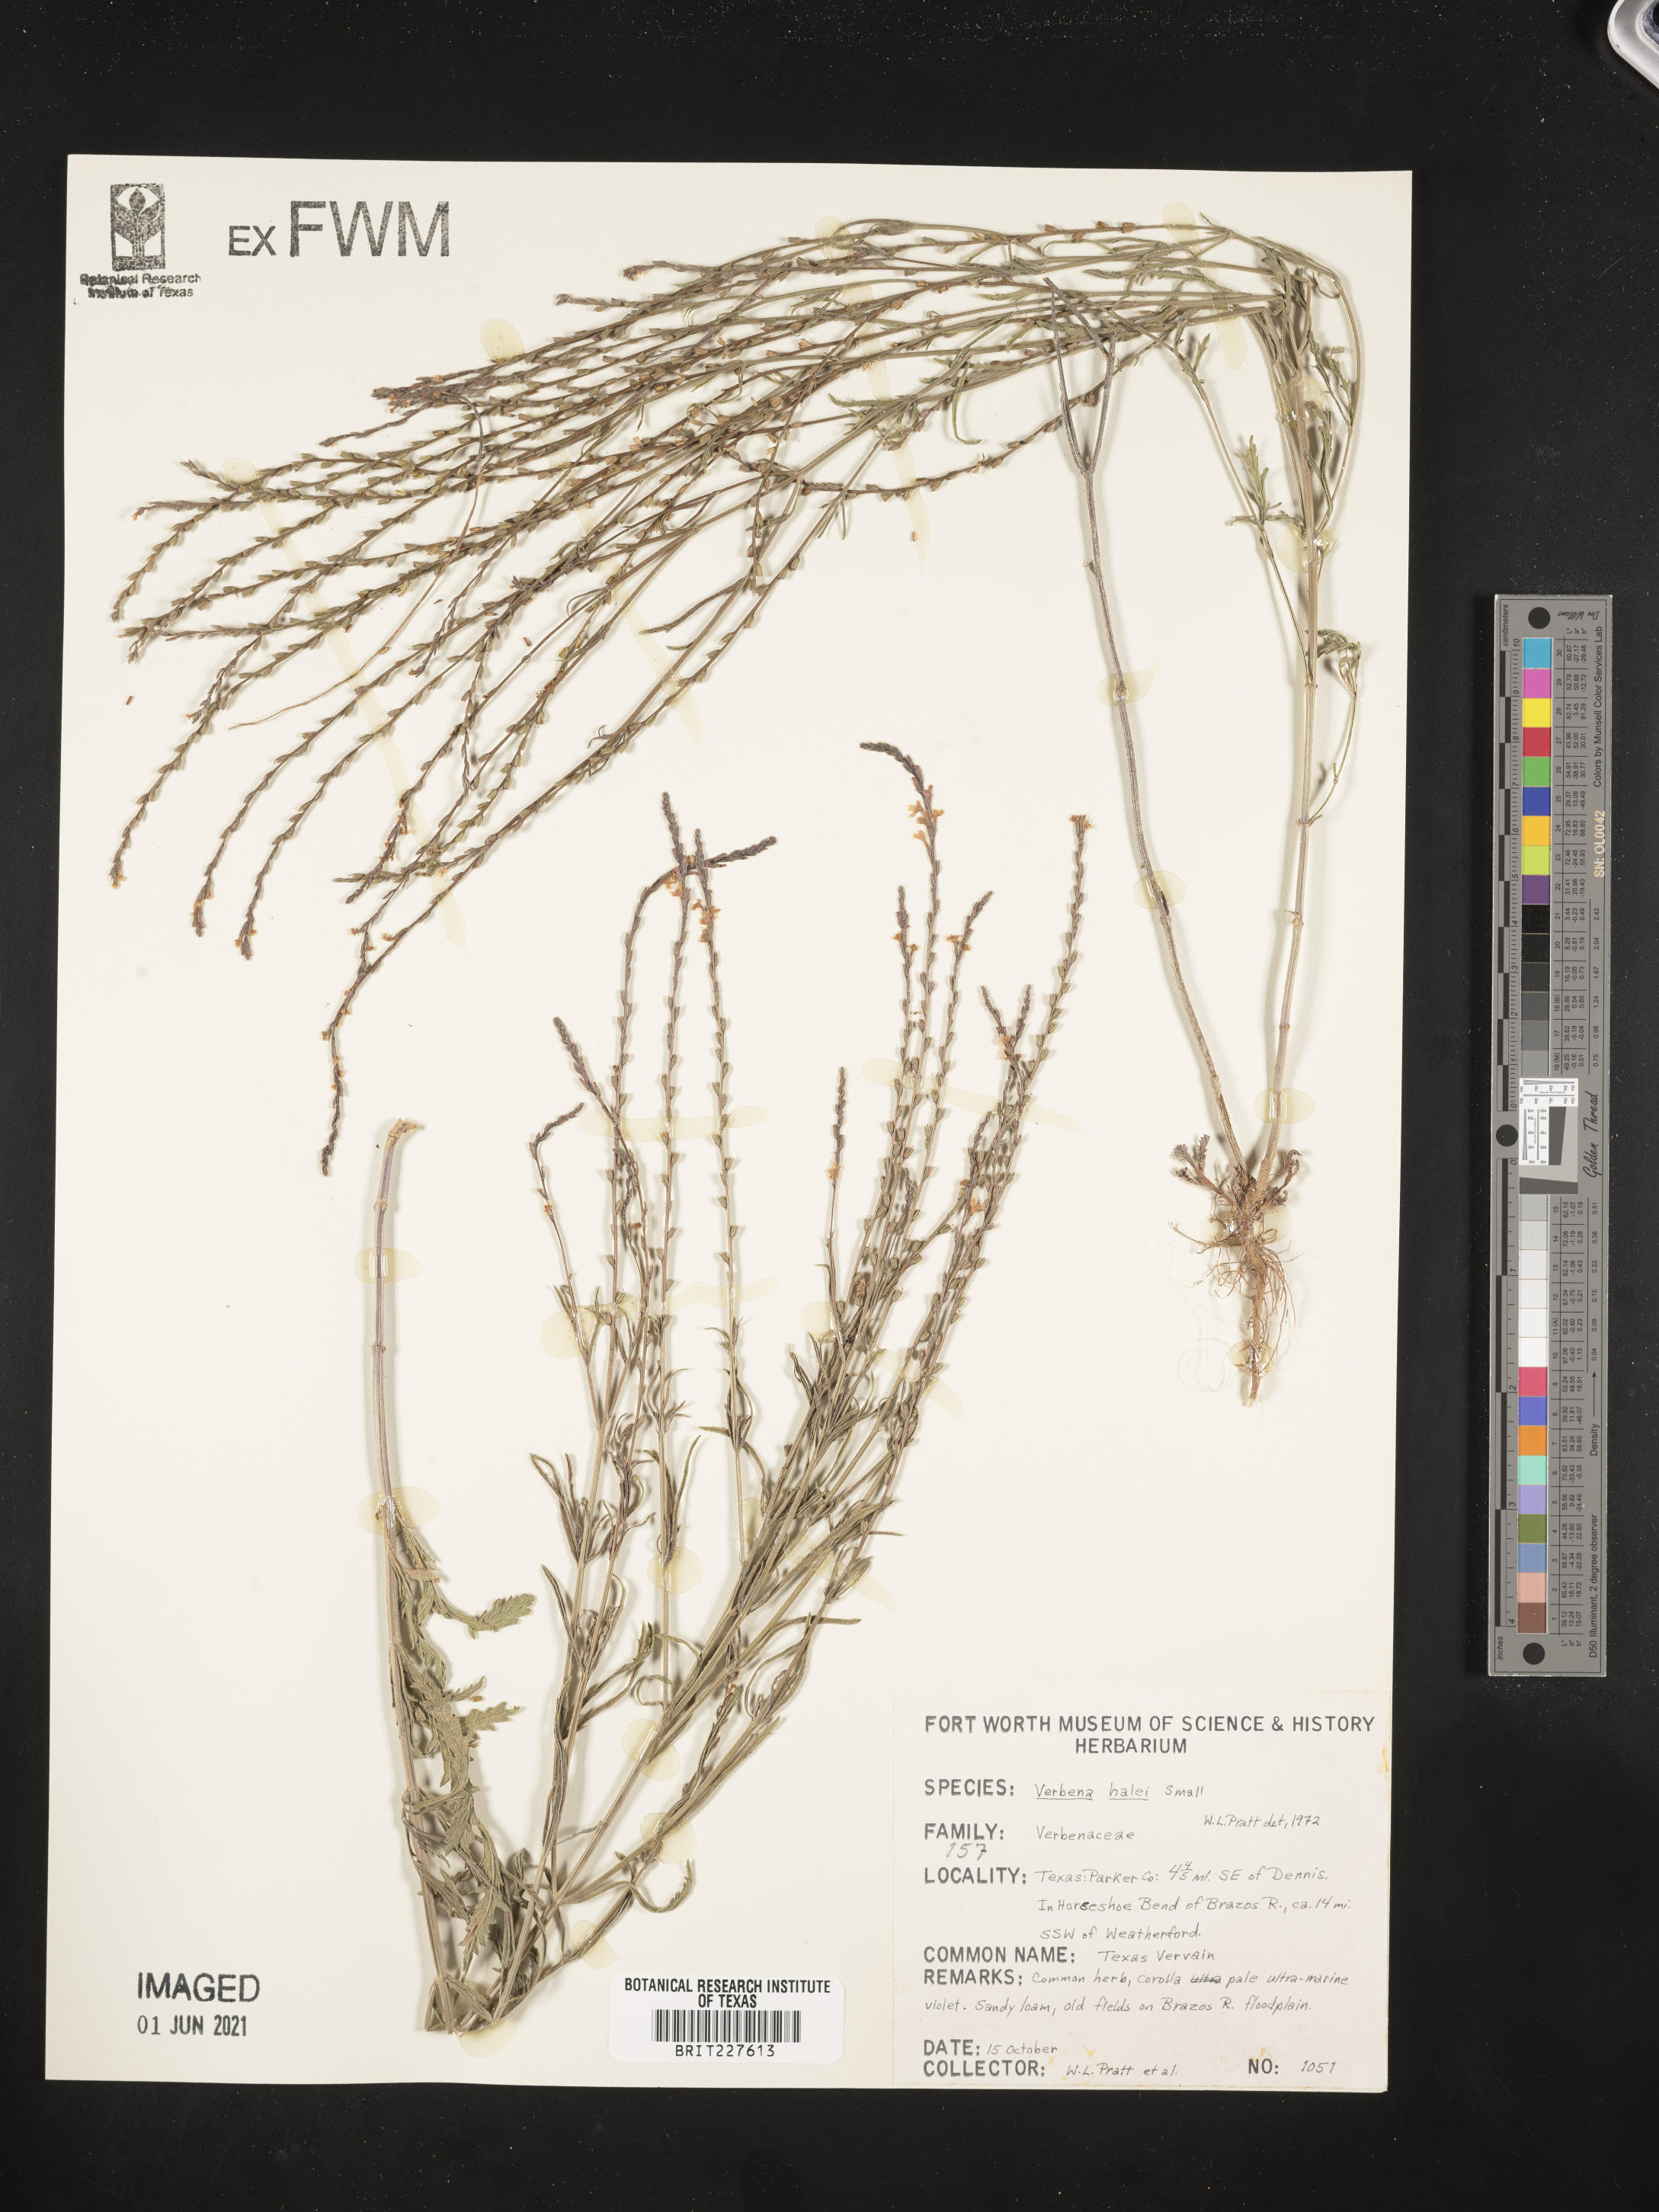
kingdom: Plantae
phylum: Tracheophyta
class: Magnoliopsida
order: Lamiales
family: Verbenaceae
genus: Verbena
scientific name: Verbena halei
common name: Texas vervain
